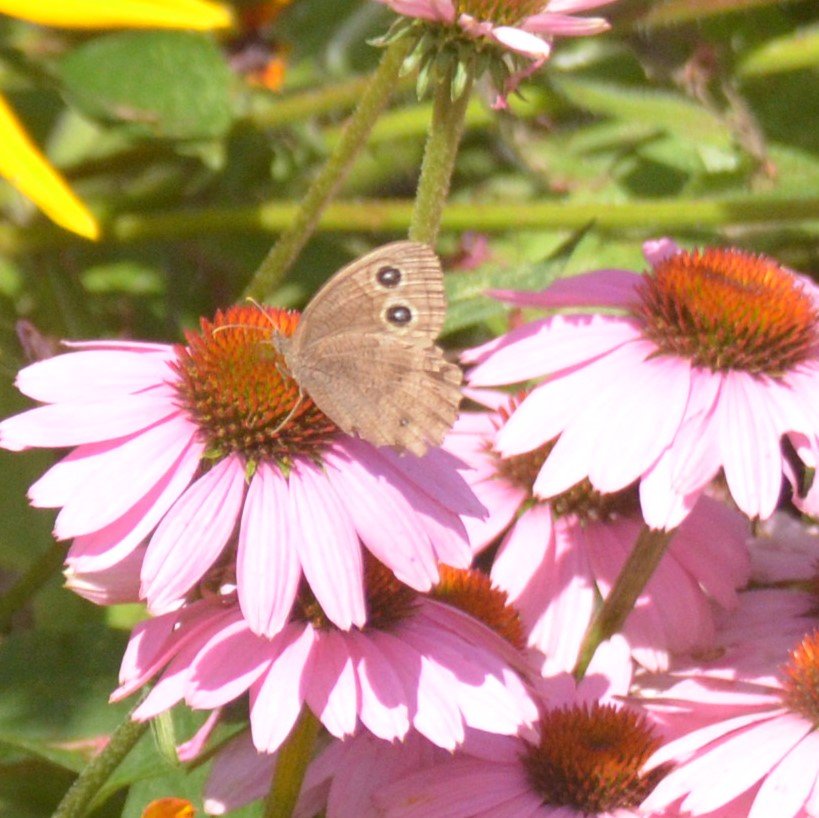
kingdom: Animalia
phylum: Arthropoda
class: Insecta
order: Lepidoptera
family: Nymphalidae
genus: Cercyonis
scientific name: Cercyonis pegala
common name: Common Wood-Nymph
